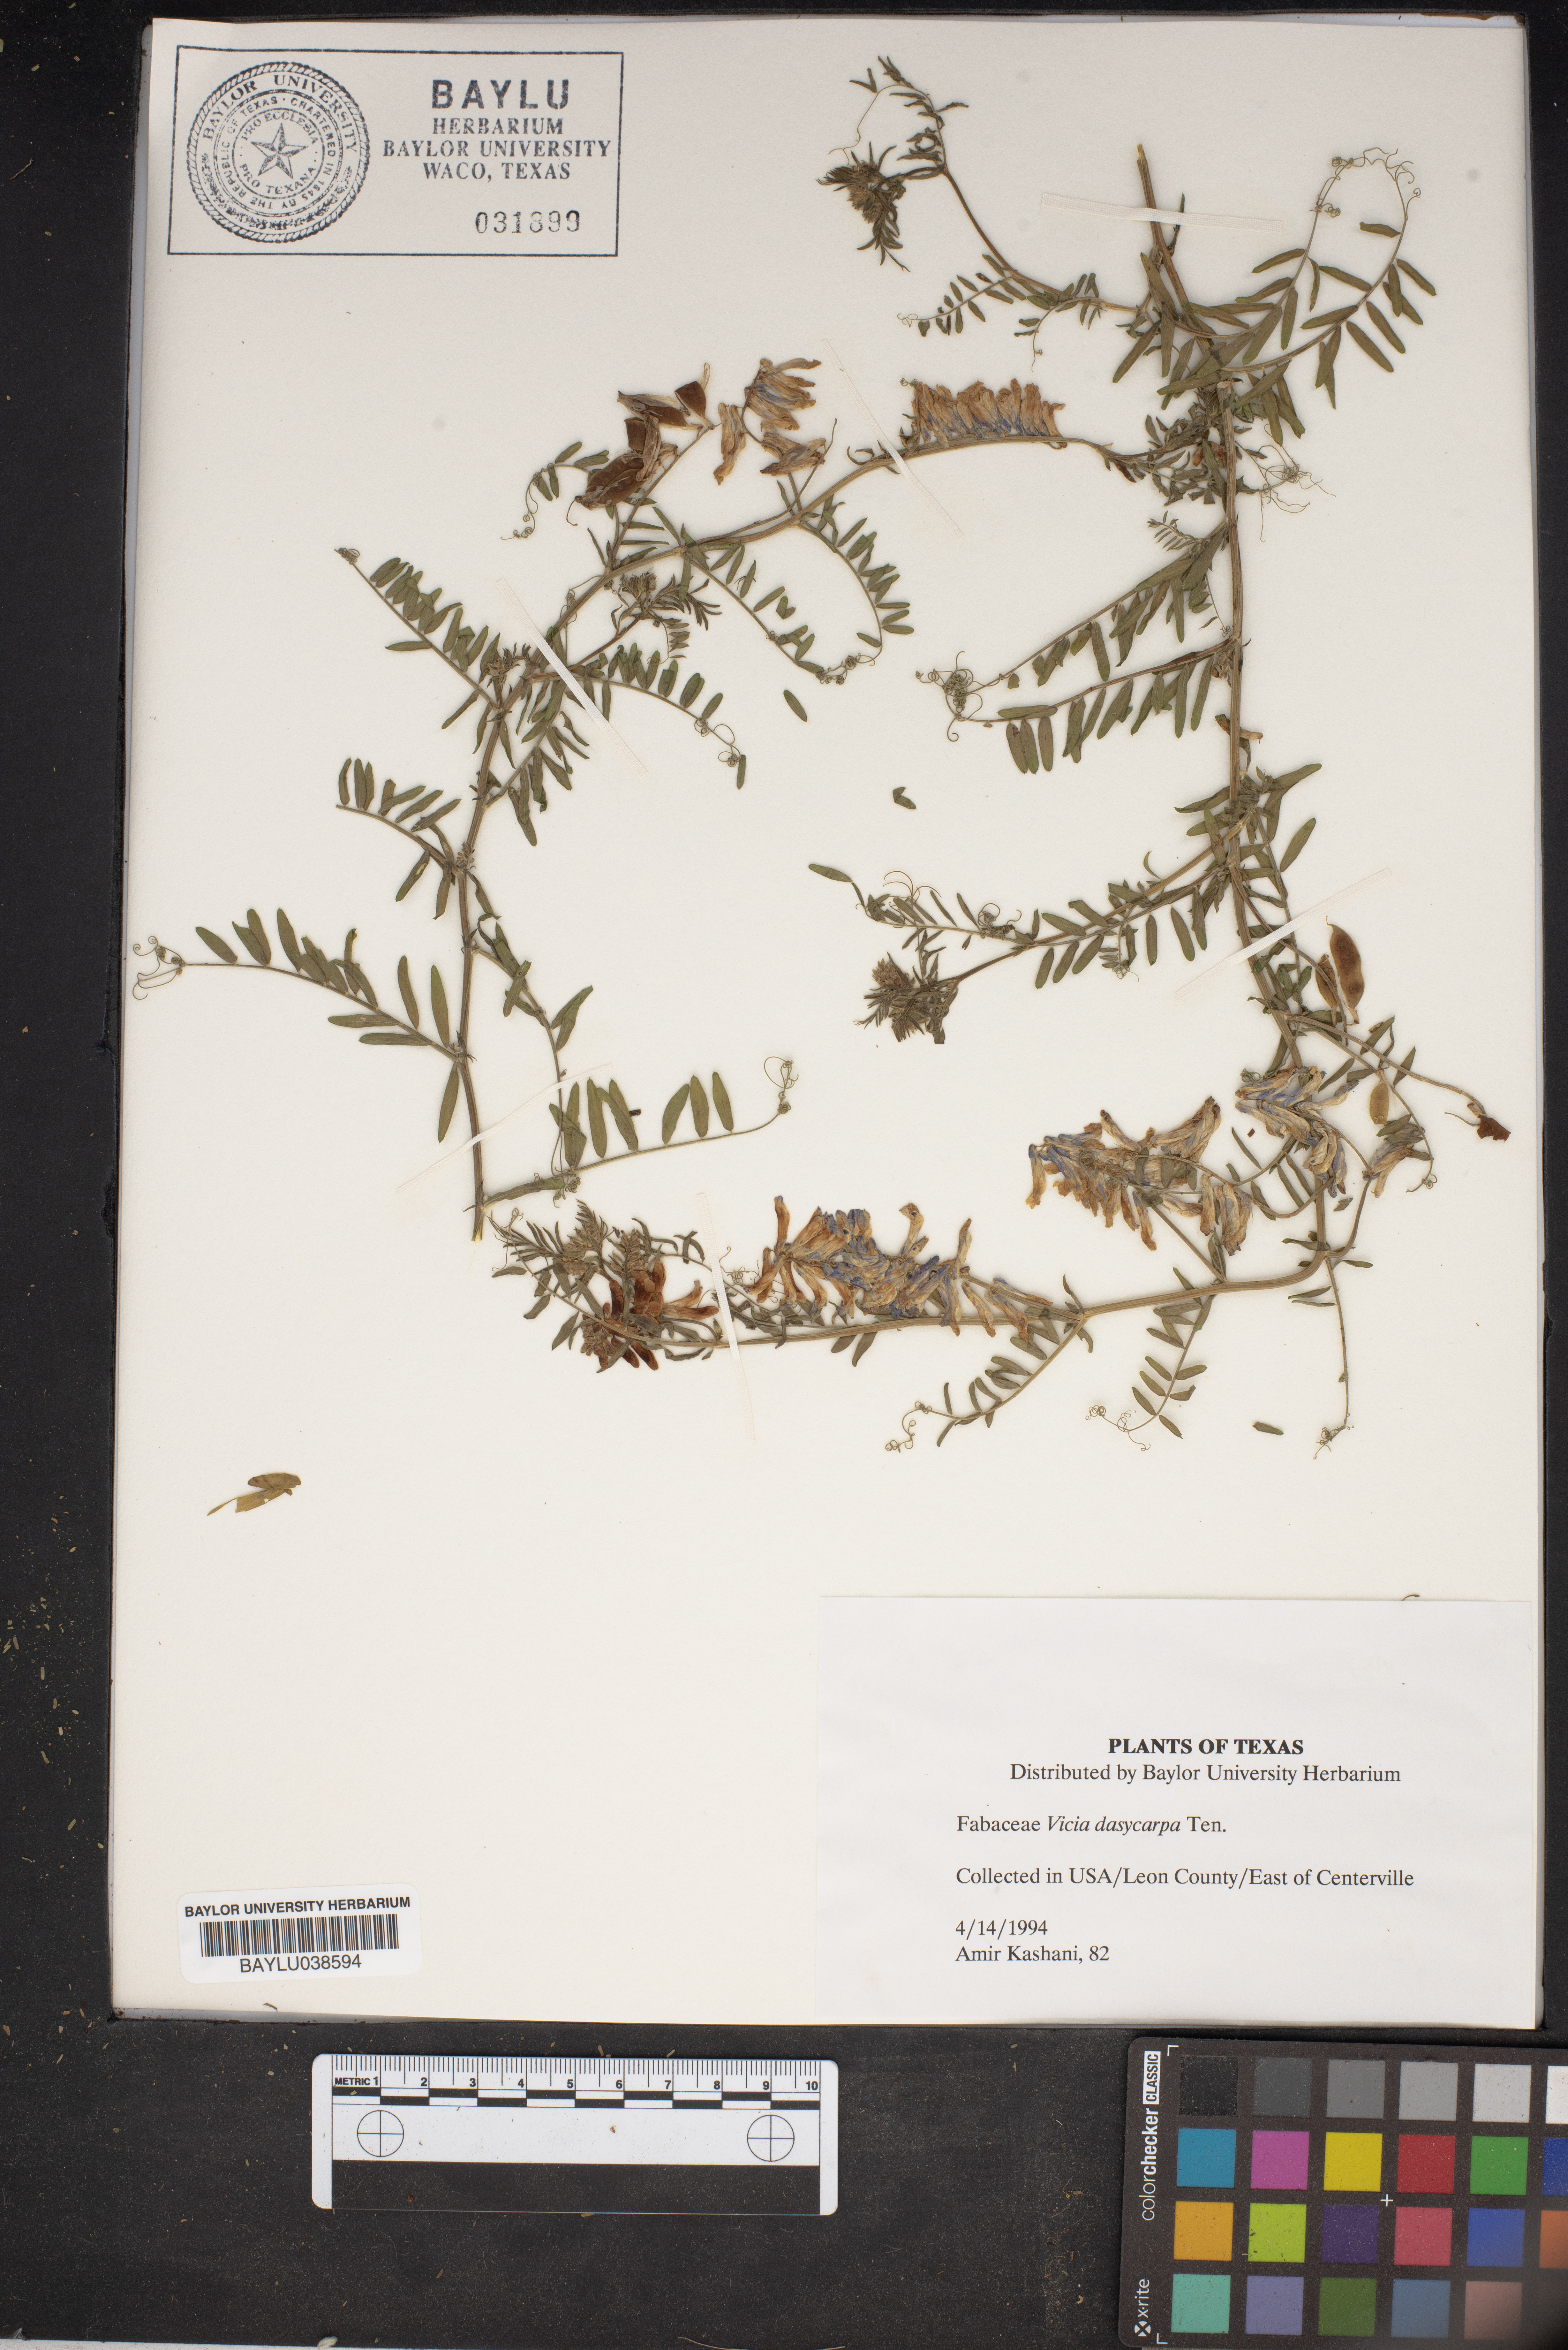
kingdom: Plantae
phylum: Tracheophyta
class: Magnoliopsida
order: Fabales
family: Fabaceae
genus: Vicia
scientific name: Vicia villosa
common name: Fodder vetch
